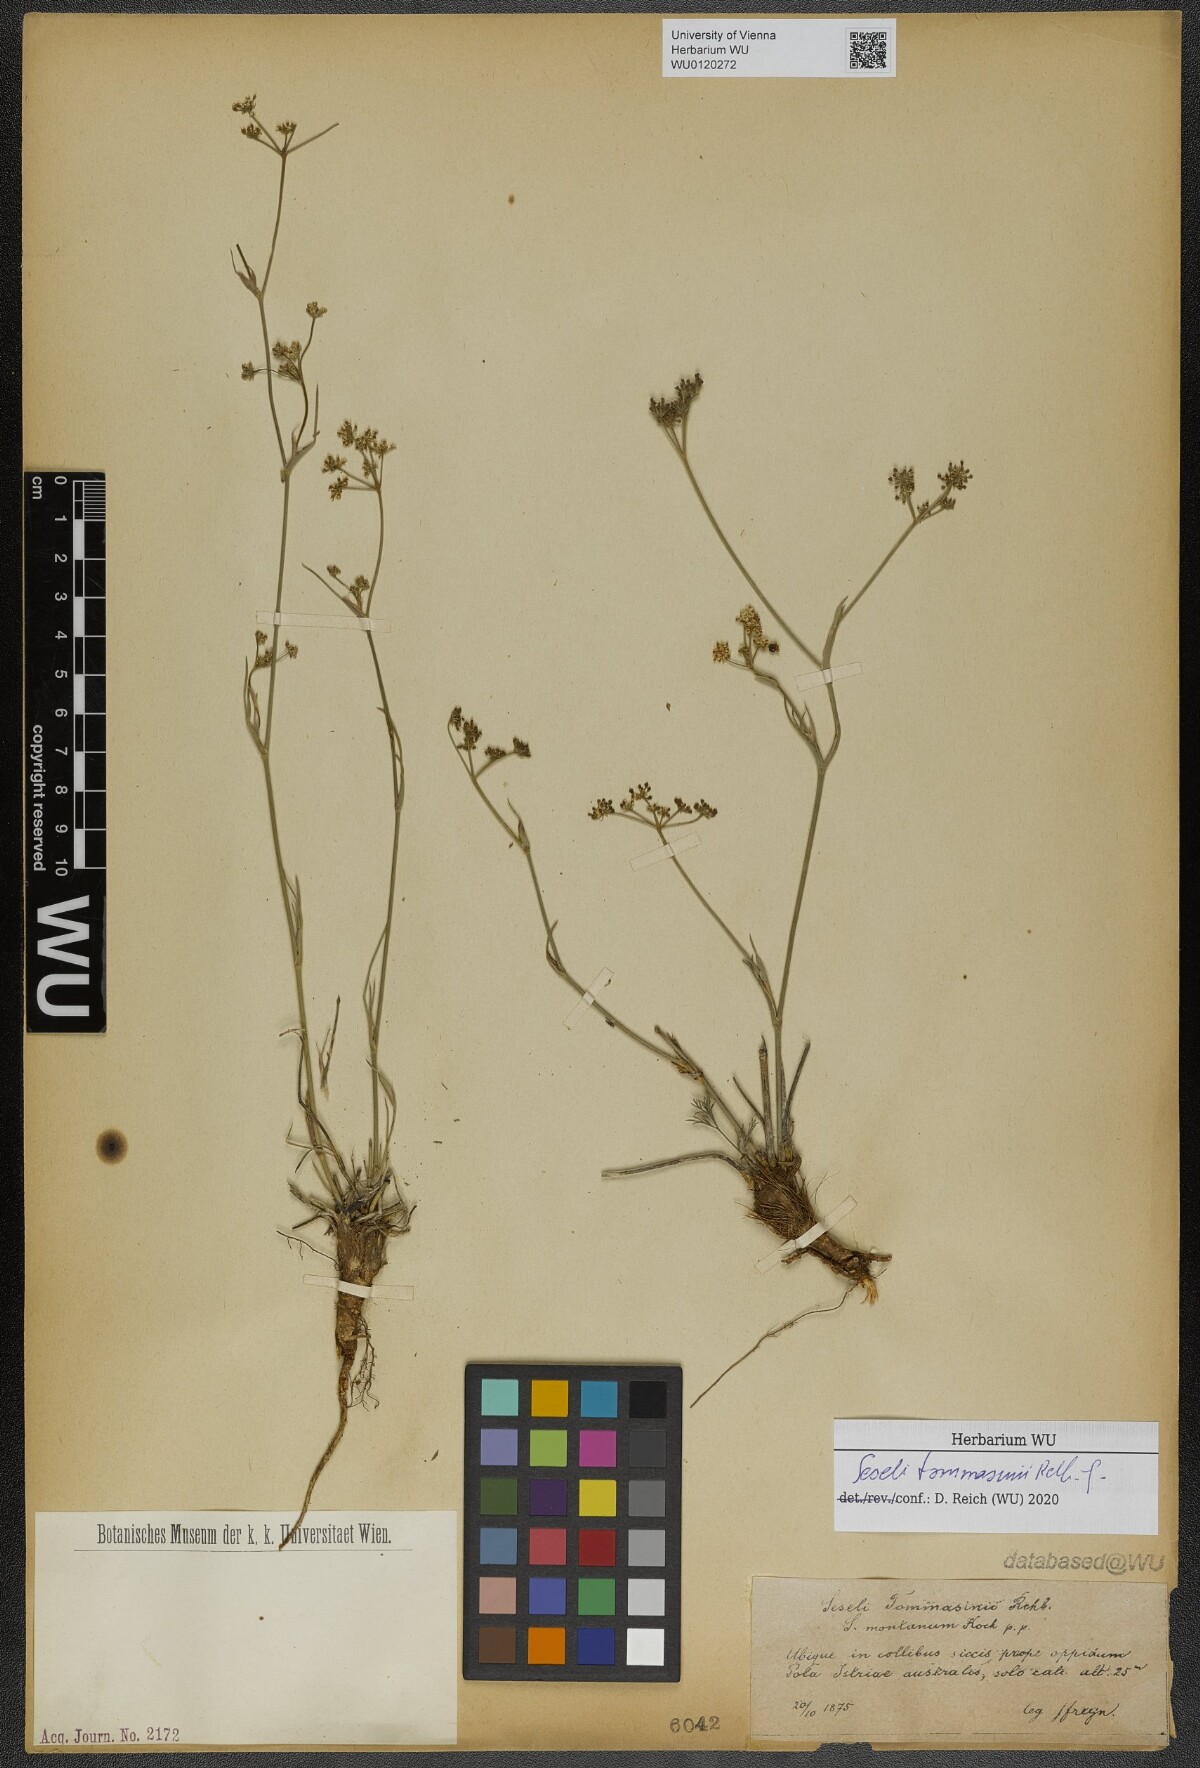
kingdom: Plantae
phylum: Tracheophyta
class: Magnoliopsida
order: Apiales
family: Apiaceae
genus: Seseli
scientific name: Seseli montanum
